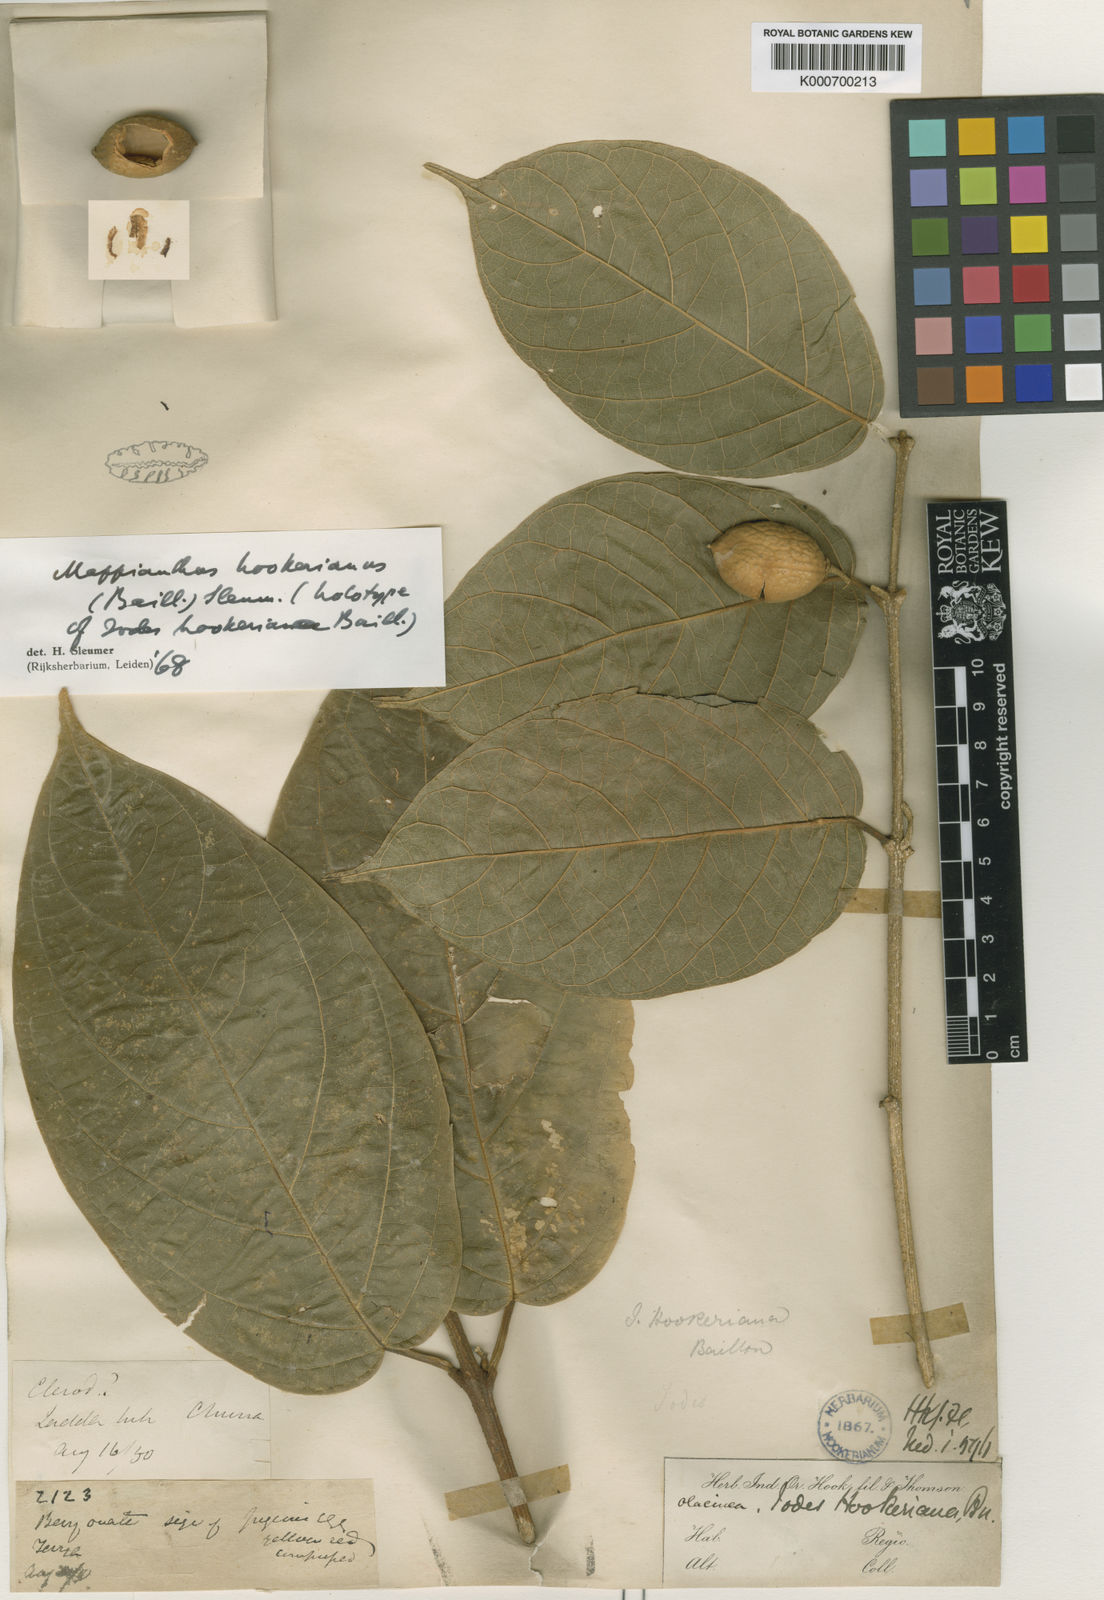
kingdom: Plantae
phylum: Tracheophyta
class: Magnoliopsida
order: Icacinales
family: Icacinaceae
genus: Mappianthus
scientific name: Mappianthus
